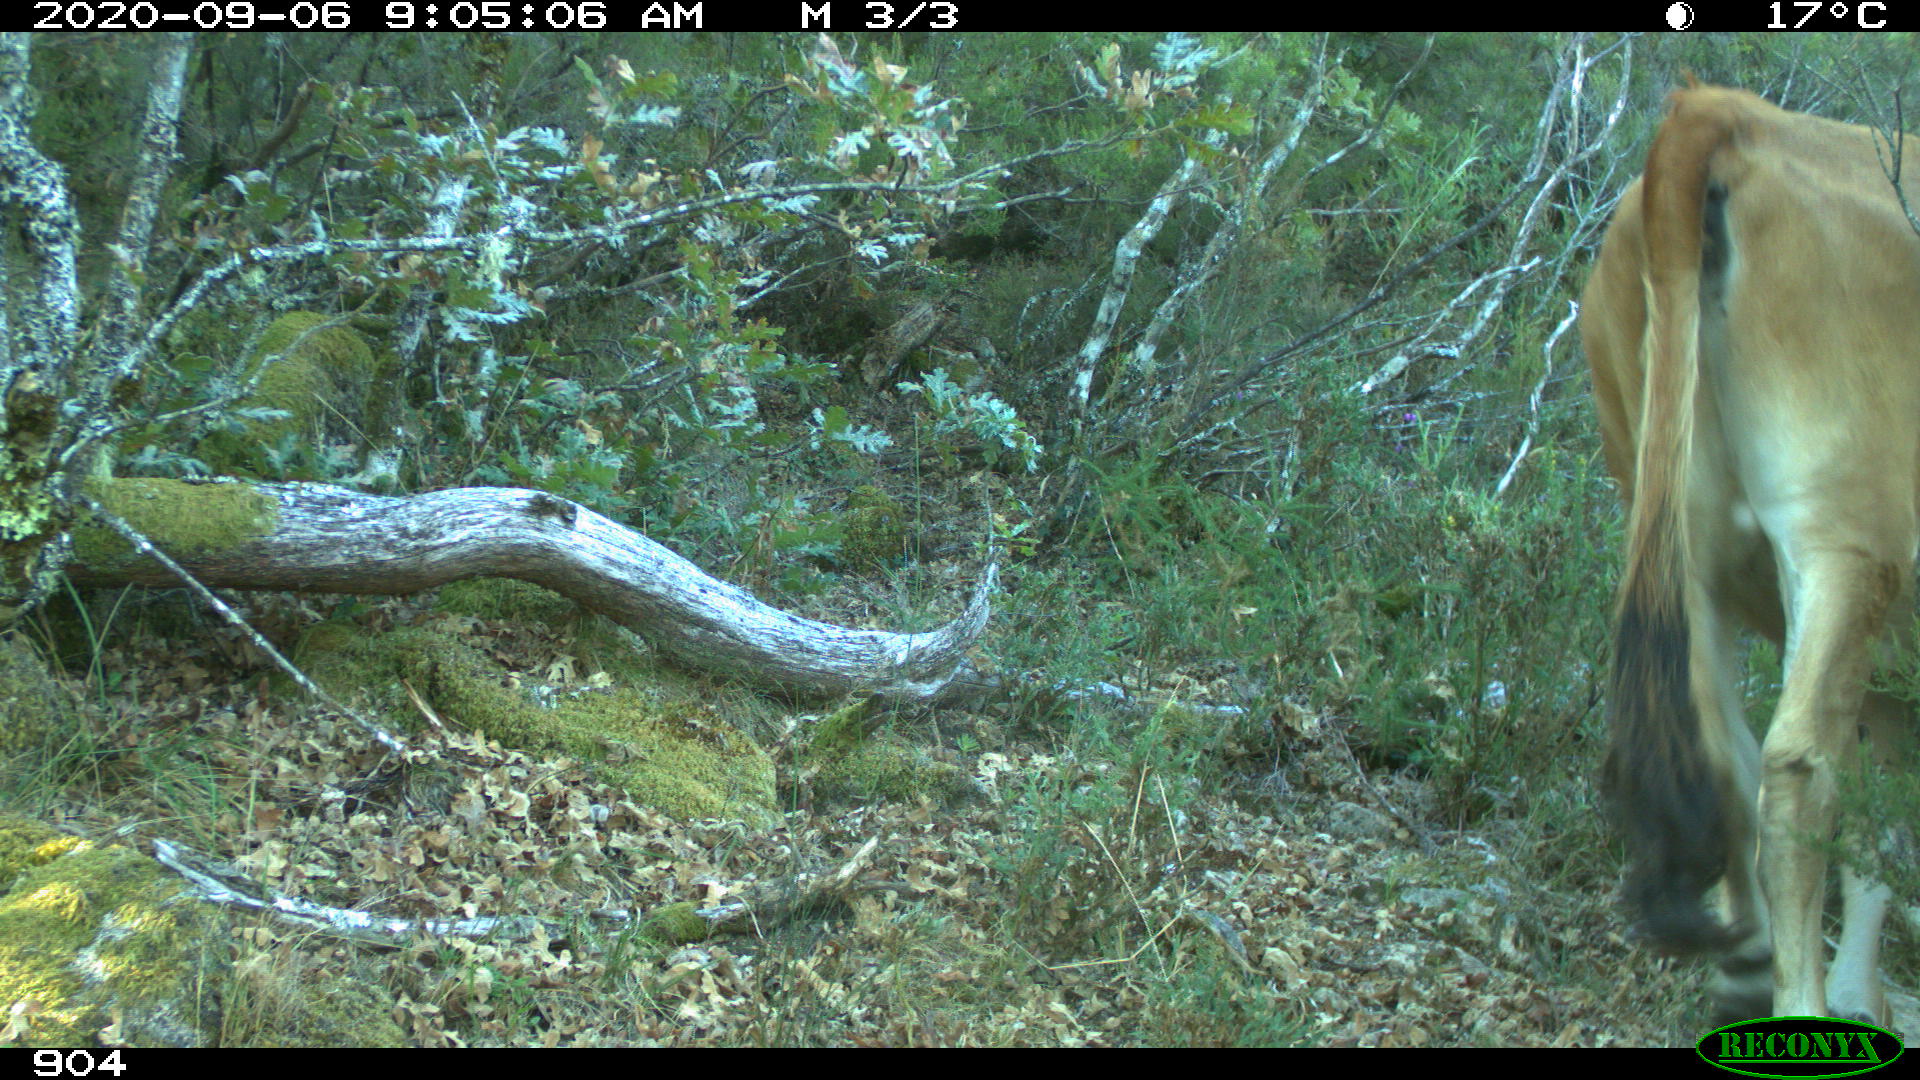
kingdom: Animalia
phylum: Chordata
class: Mammalia
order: Artiodactyla
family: Bovidae
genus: Bos
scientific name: Bos taurus
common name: Domesticated cattle
